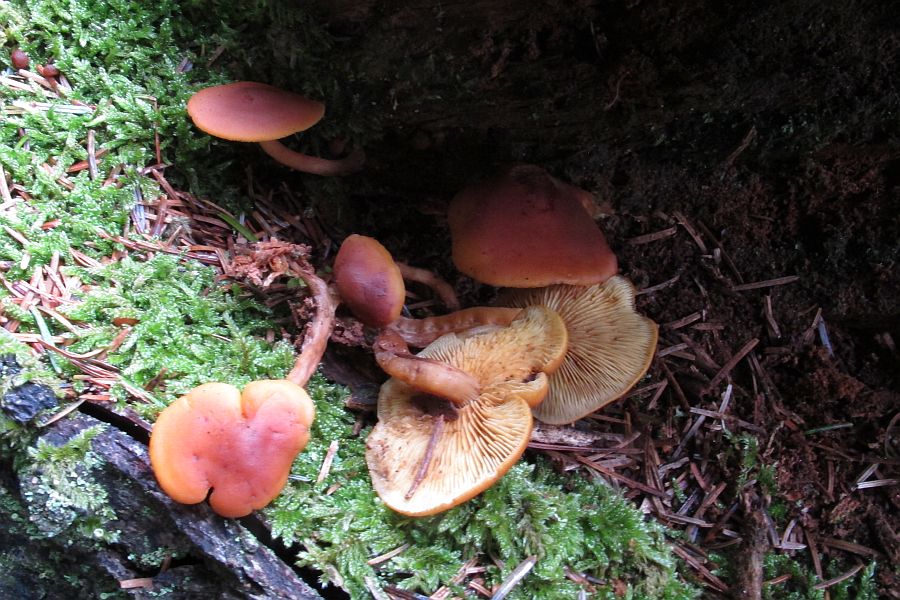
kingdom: Fungi
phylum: Basidiomycota
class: Agaricomycetes
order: Agaricales
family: Hymenogastraceae
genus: Gymnopilus
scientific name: Gymnopilus picreus
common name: puklet flammehat
